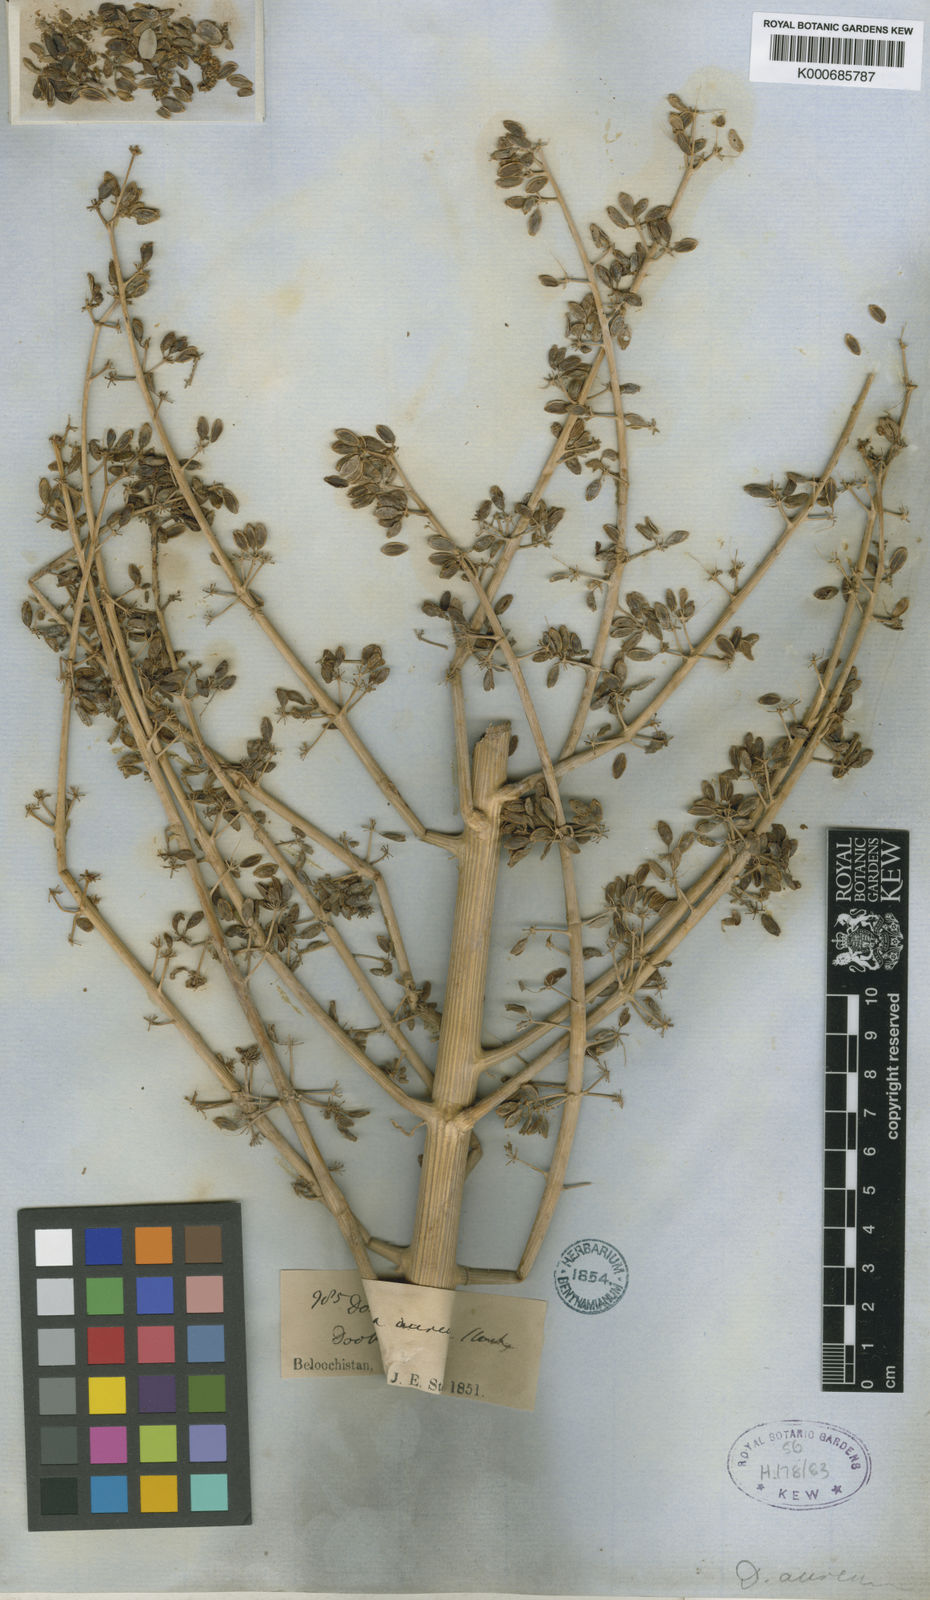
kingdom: Plantae
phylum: Tracheophyta
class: Magnoliopsida
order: Apiales
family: Apiaceae
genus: Ferula
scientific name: Ferula downieorum
